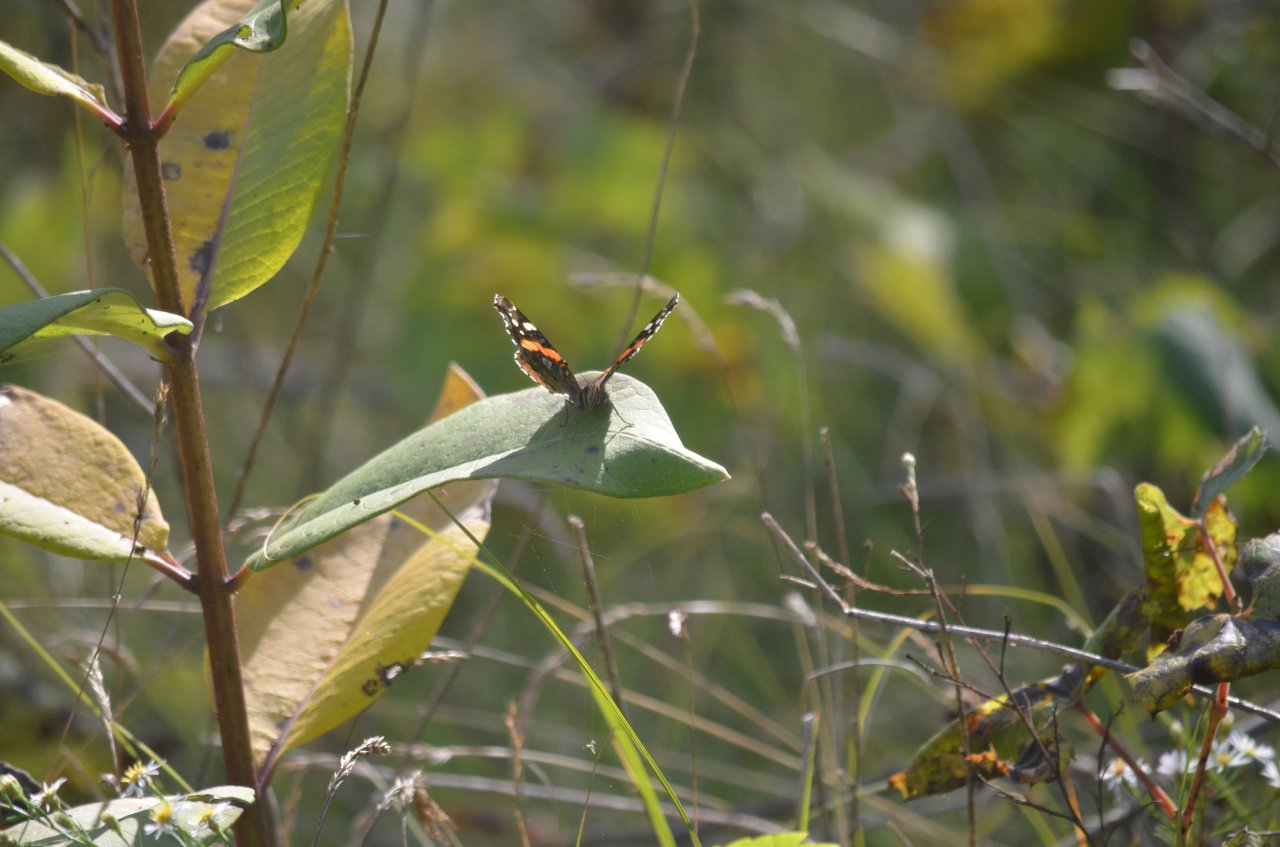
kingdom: Animalia
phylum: Arthropoda
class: Insecta
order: Lepidoptera
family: Nymphalidae
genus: Vanessa
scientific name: Vanessa atalanta
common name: Red Admiral
